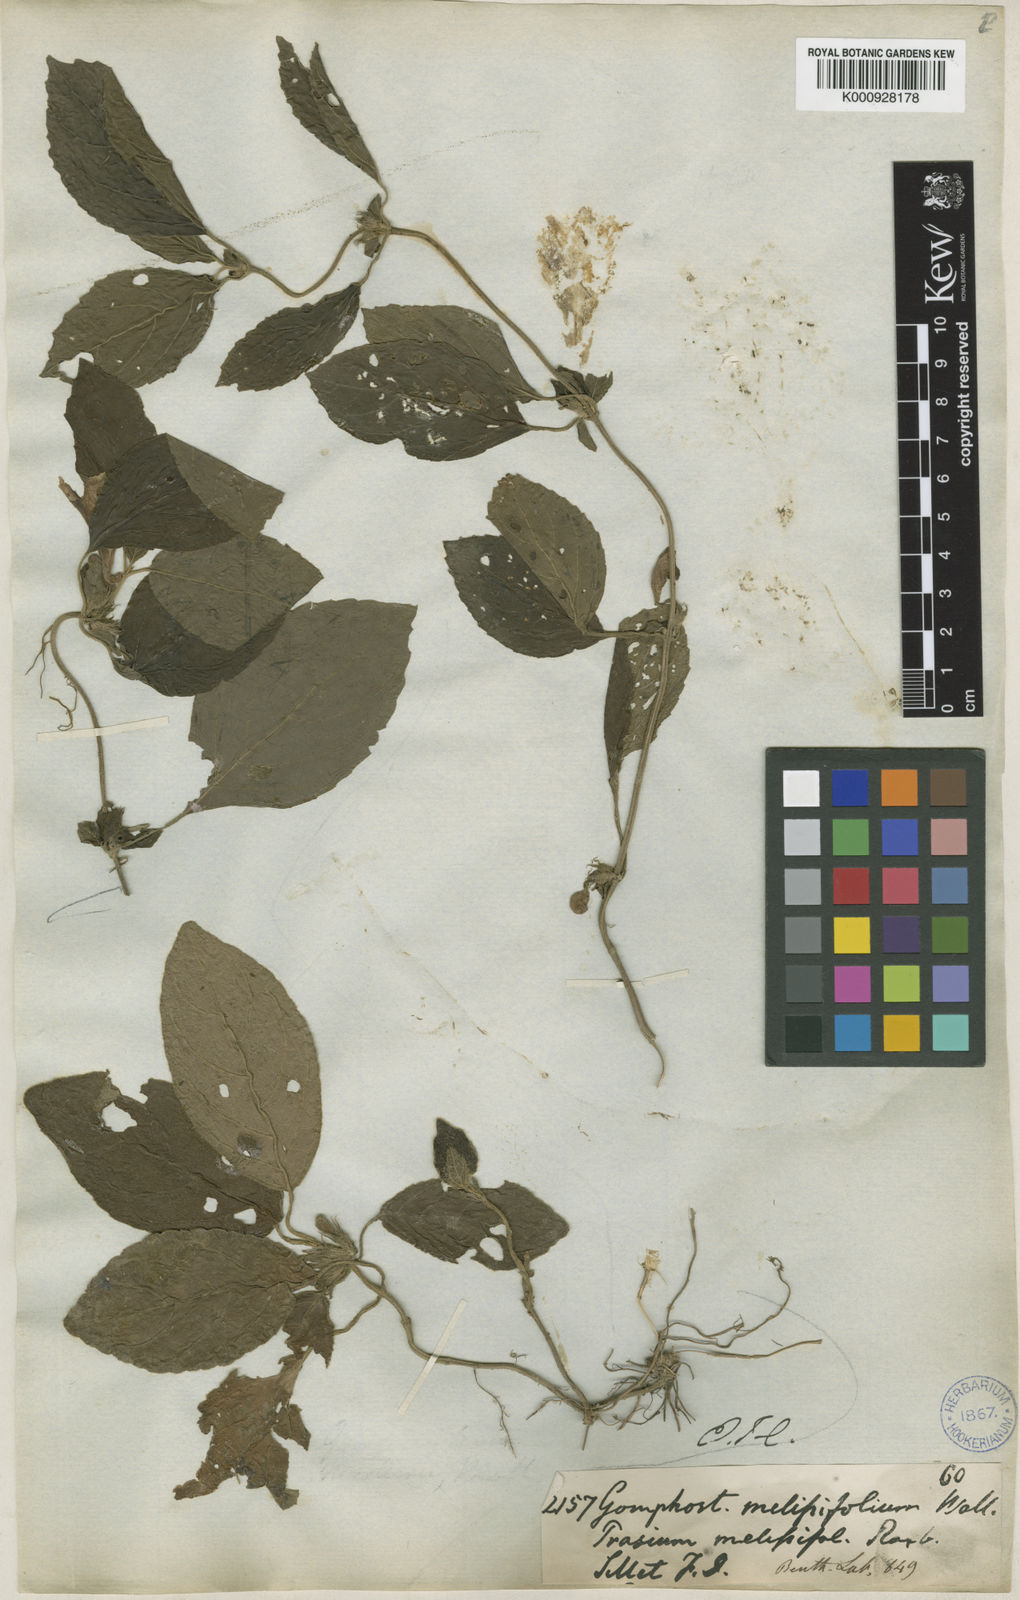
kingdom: Plantae
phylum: Tracheophyta
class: Magnoliopsida
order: Lamiales
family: Lamiaceae
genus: Gomphostemma
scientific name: Gomphostemma melissifolium
